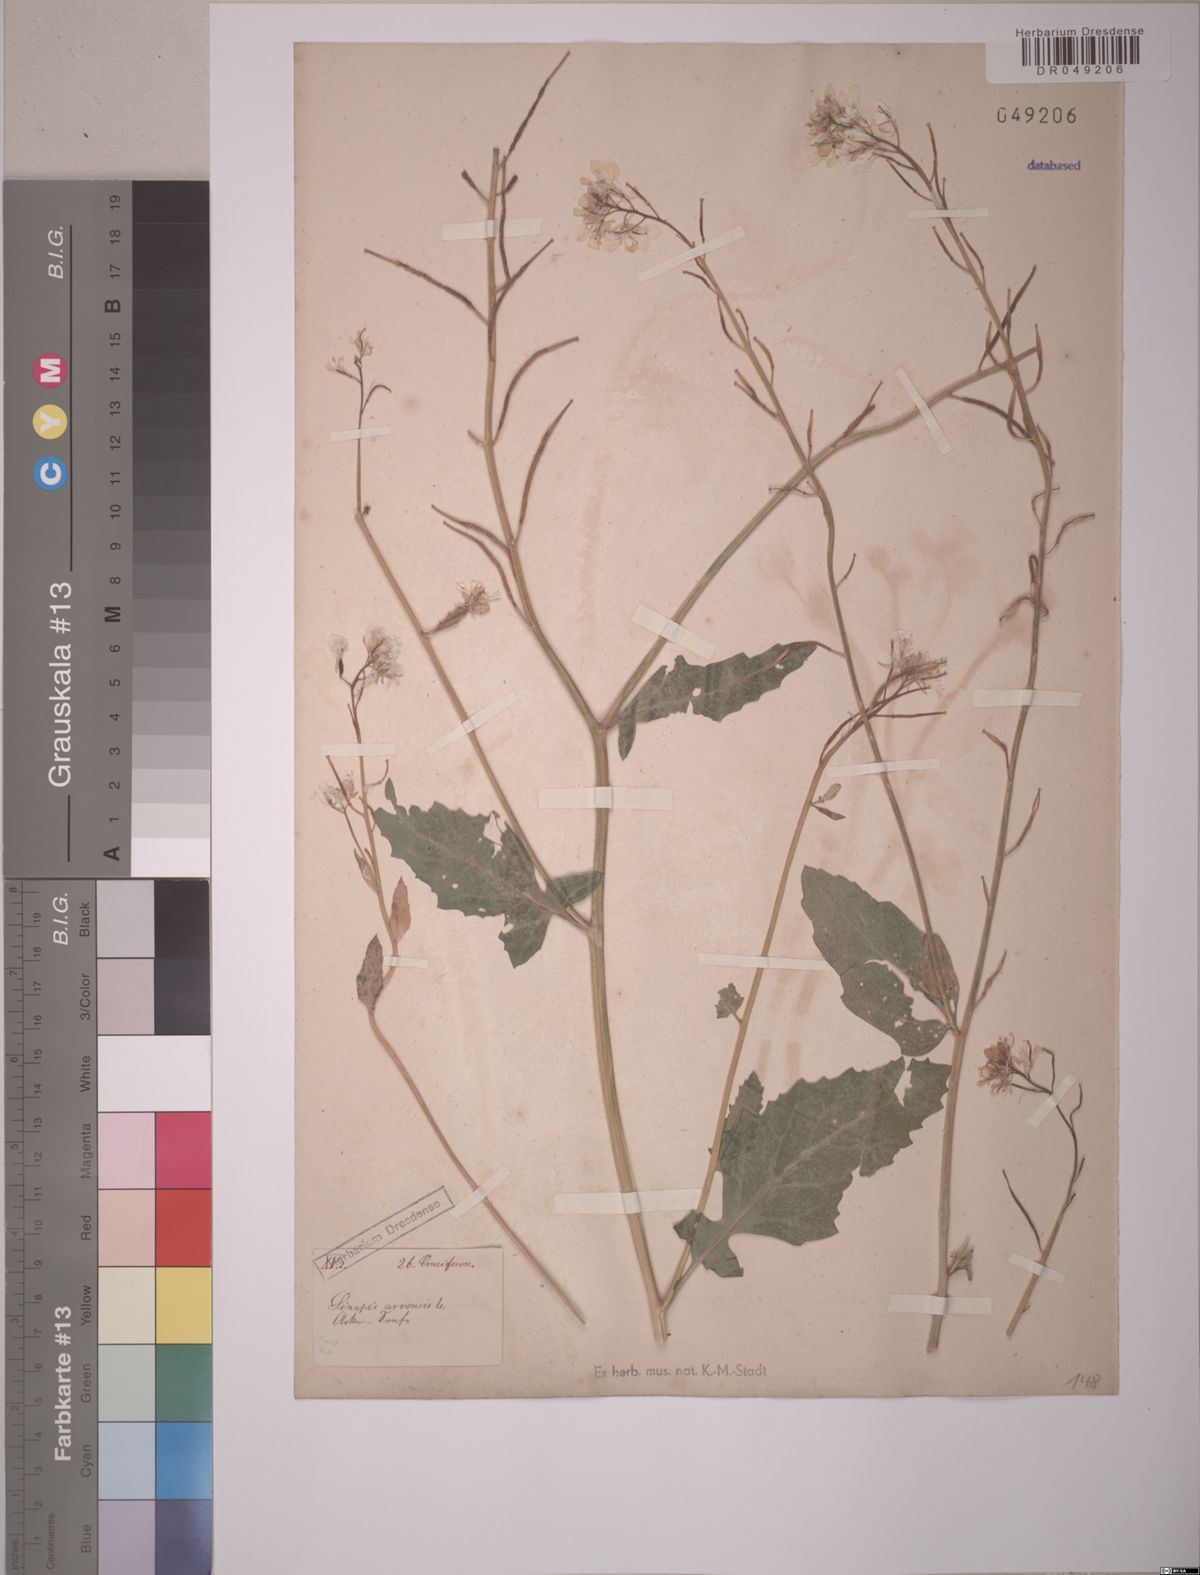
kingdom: Plantae
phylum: Tracheophyta
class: Magnoliopsida
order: Brassicales
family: Brassicaceae
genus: Sinapis
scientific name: Sinapis arvensis
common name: Charlock
